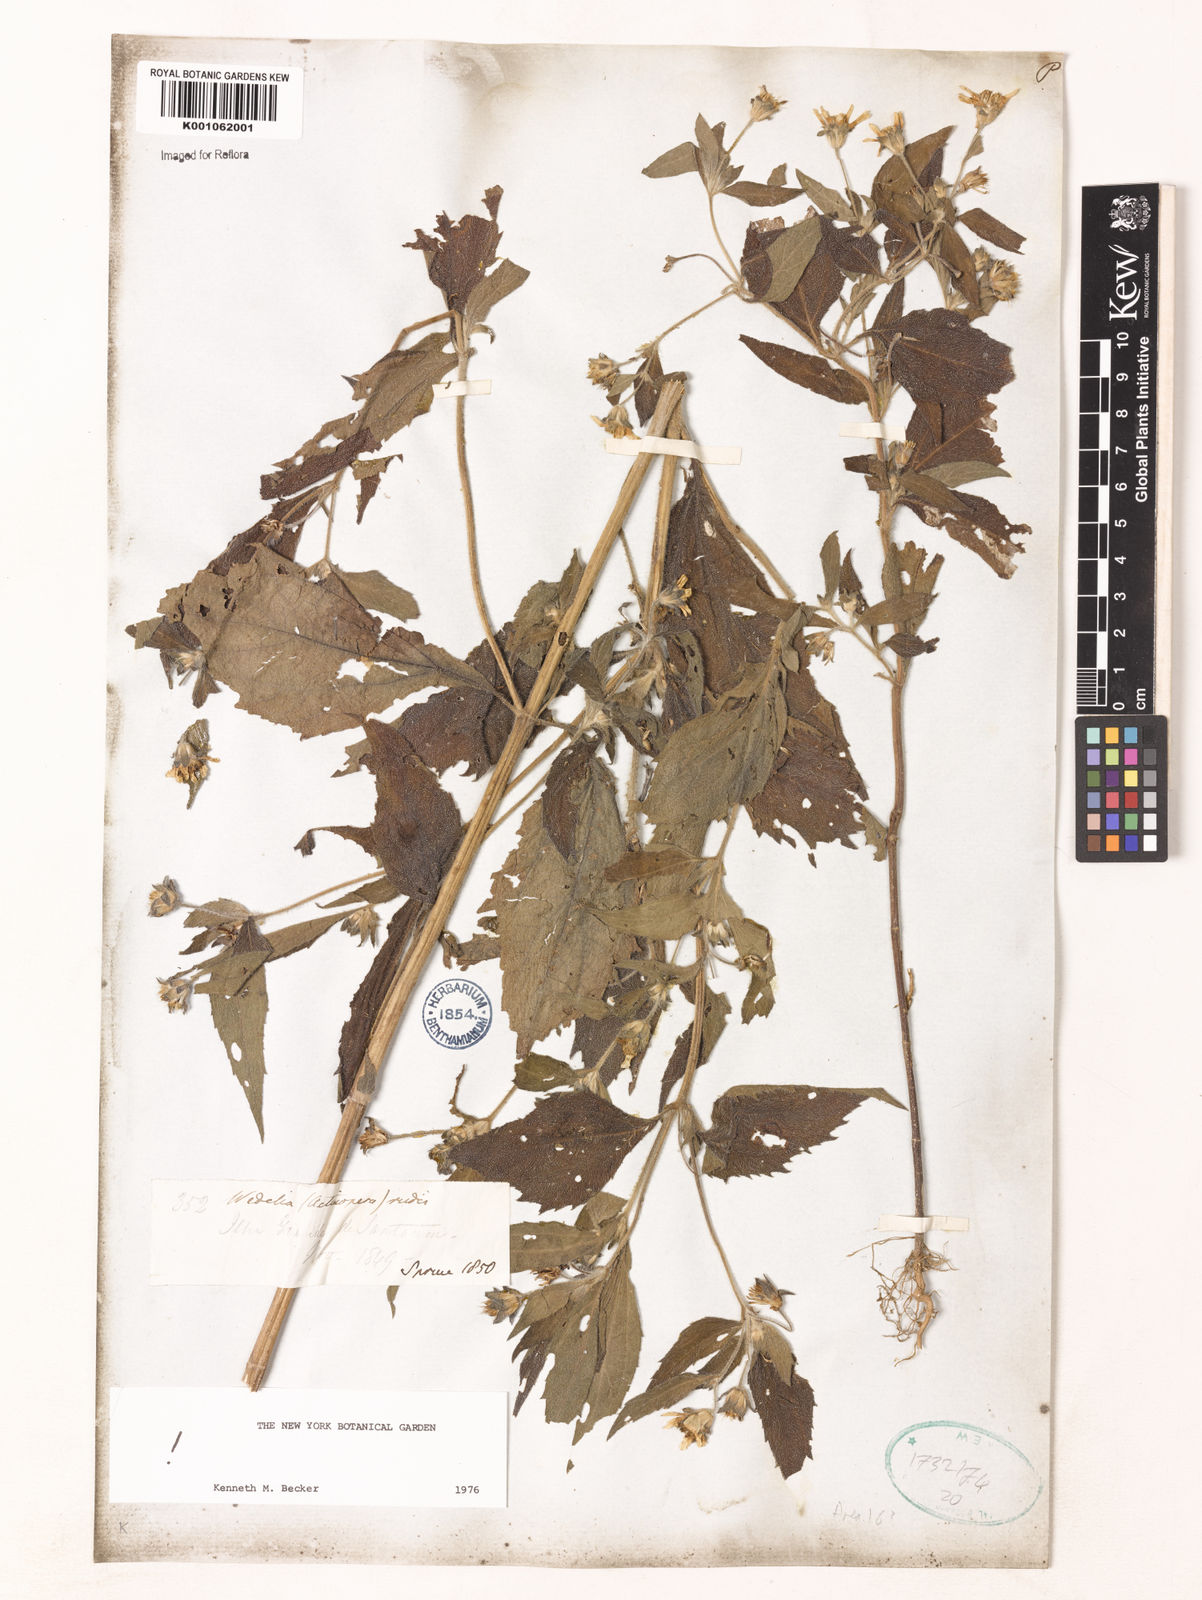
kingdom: Plantae
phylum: Tracheophyta
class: Magnoliopsida
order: Asterales
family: Asteraceae
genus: Wedelia
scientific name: Wedelia rudis
